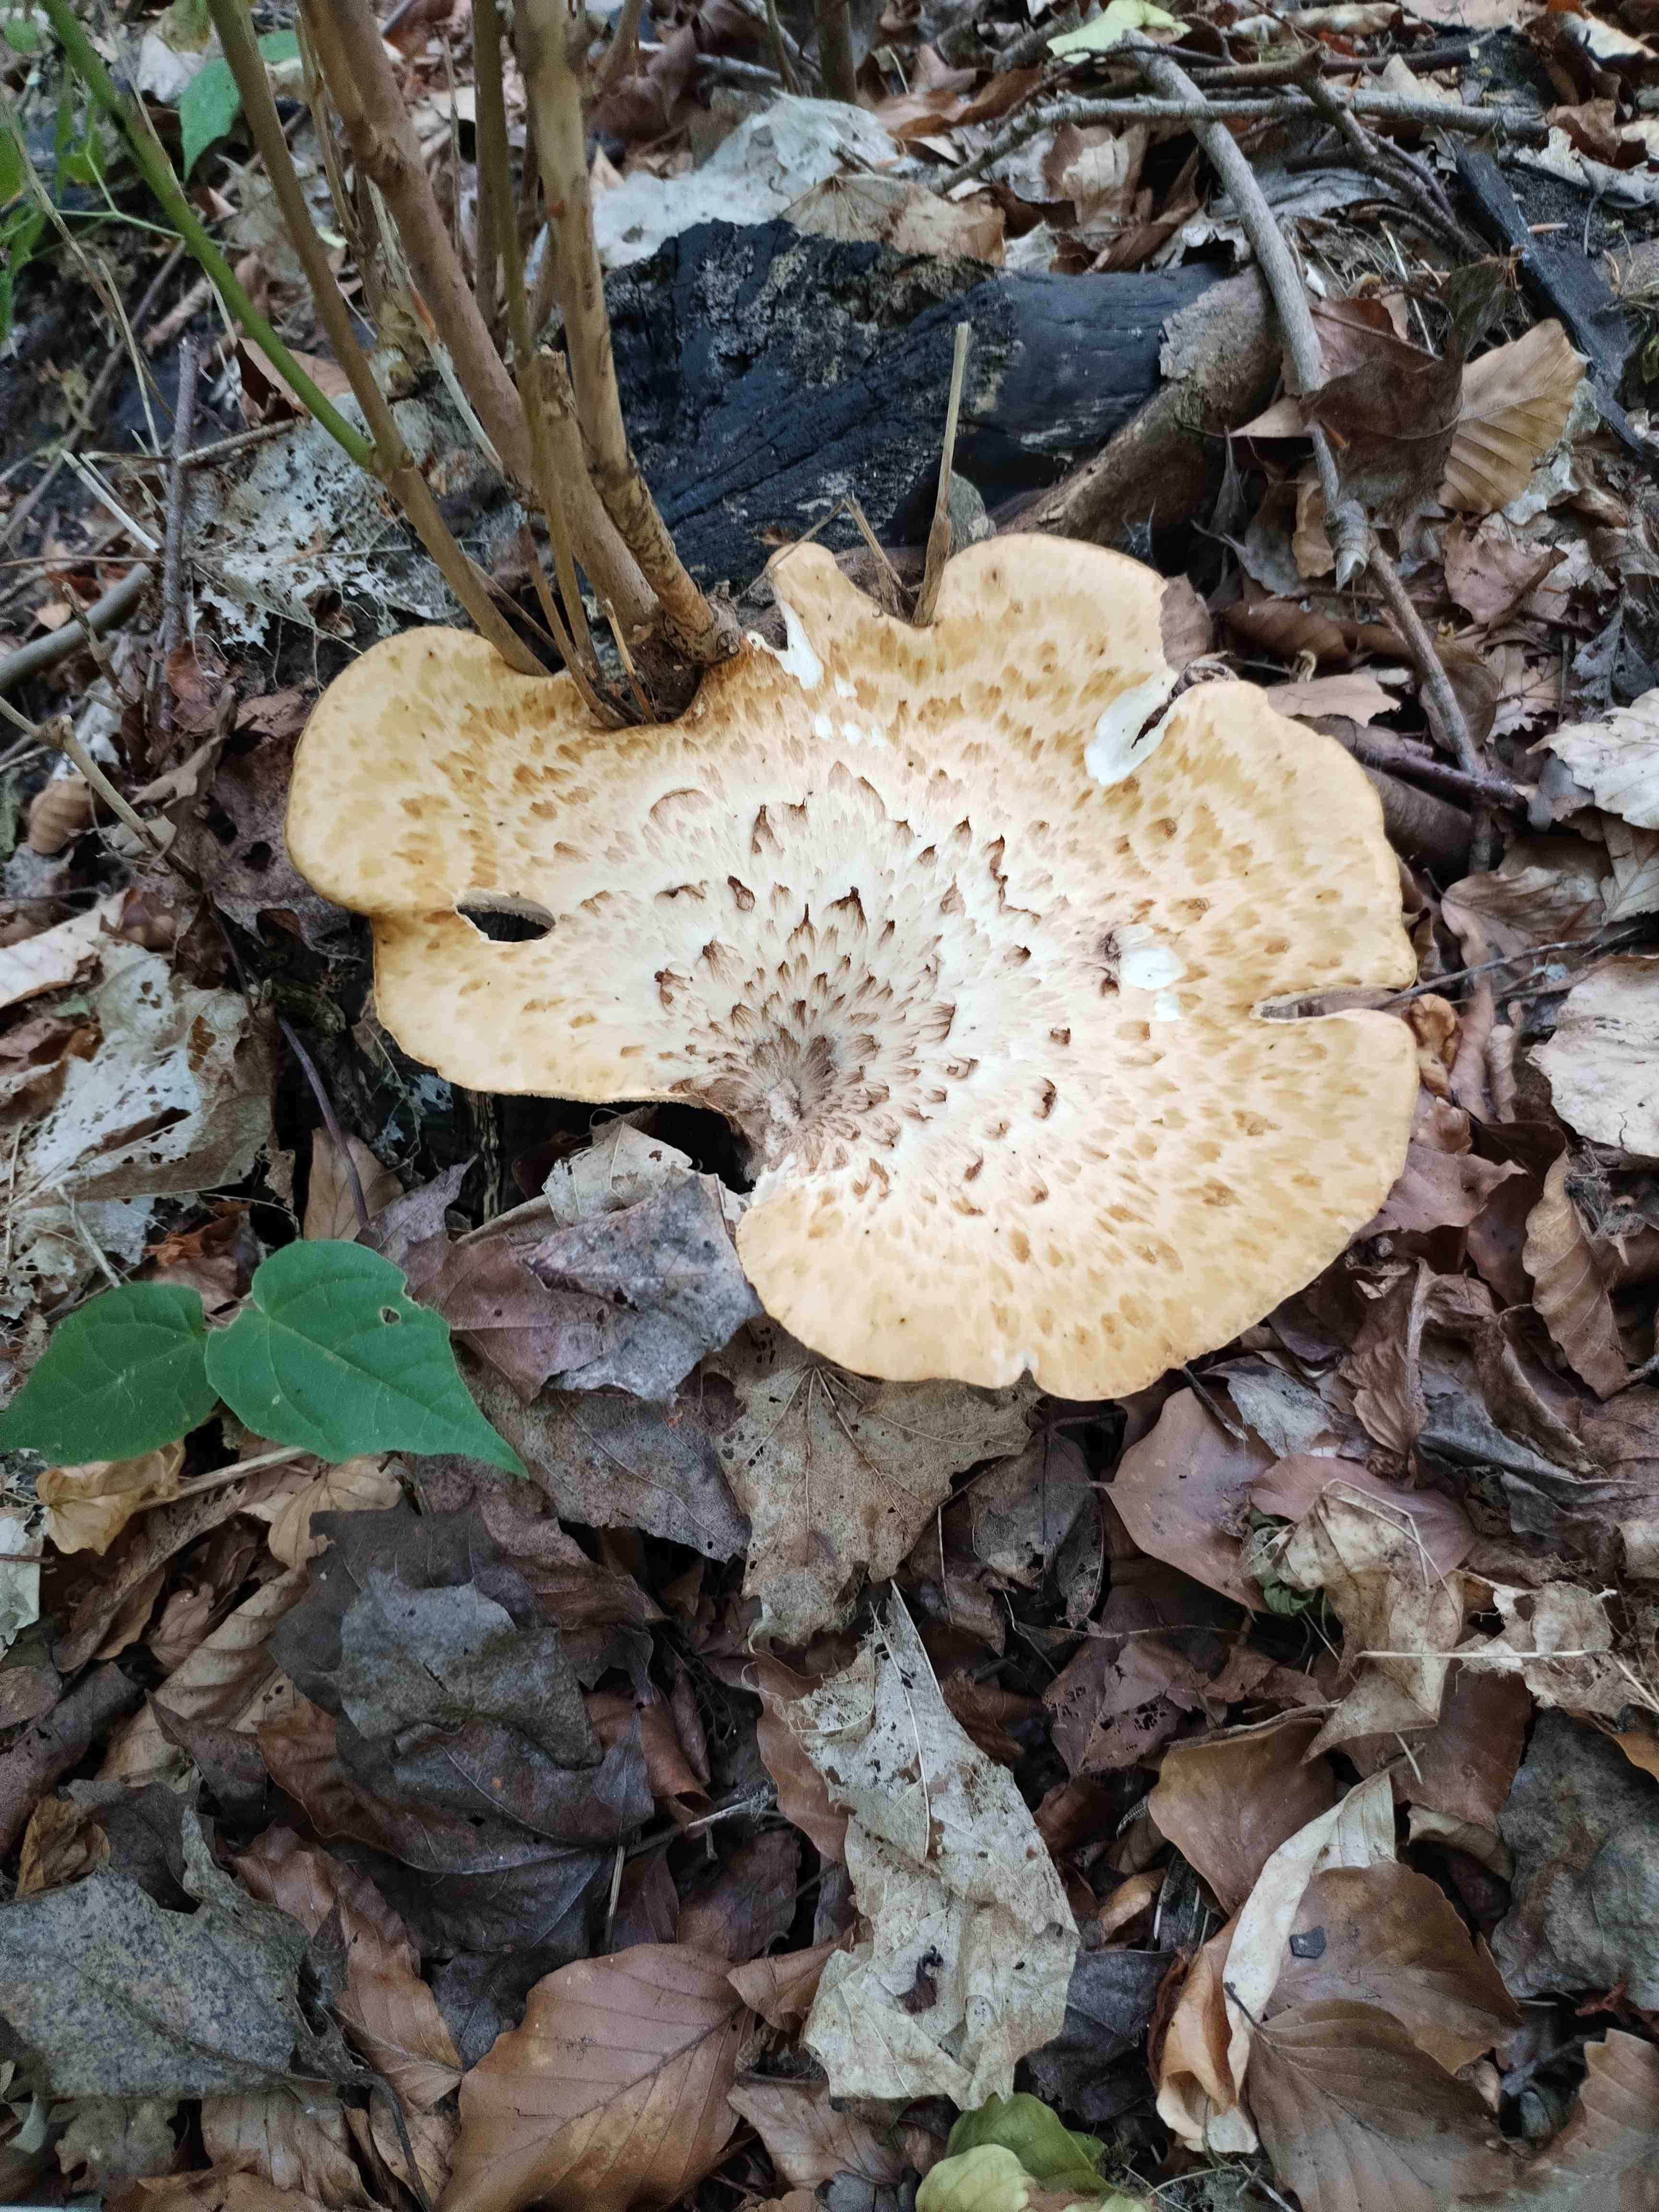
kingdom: Fungi
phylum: Basidiomycota
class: Agaricomycetes
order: Polyporales
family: Polyporaceae
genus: Cerioporus
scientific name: Cerioporus squamosus
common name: skællet stilkporesvamp
